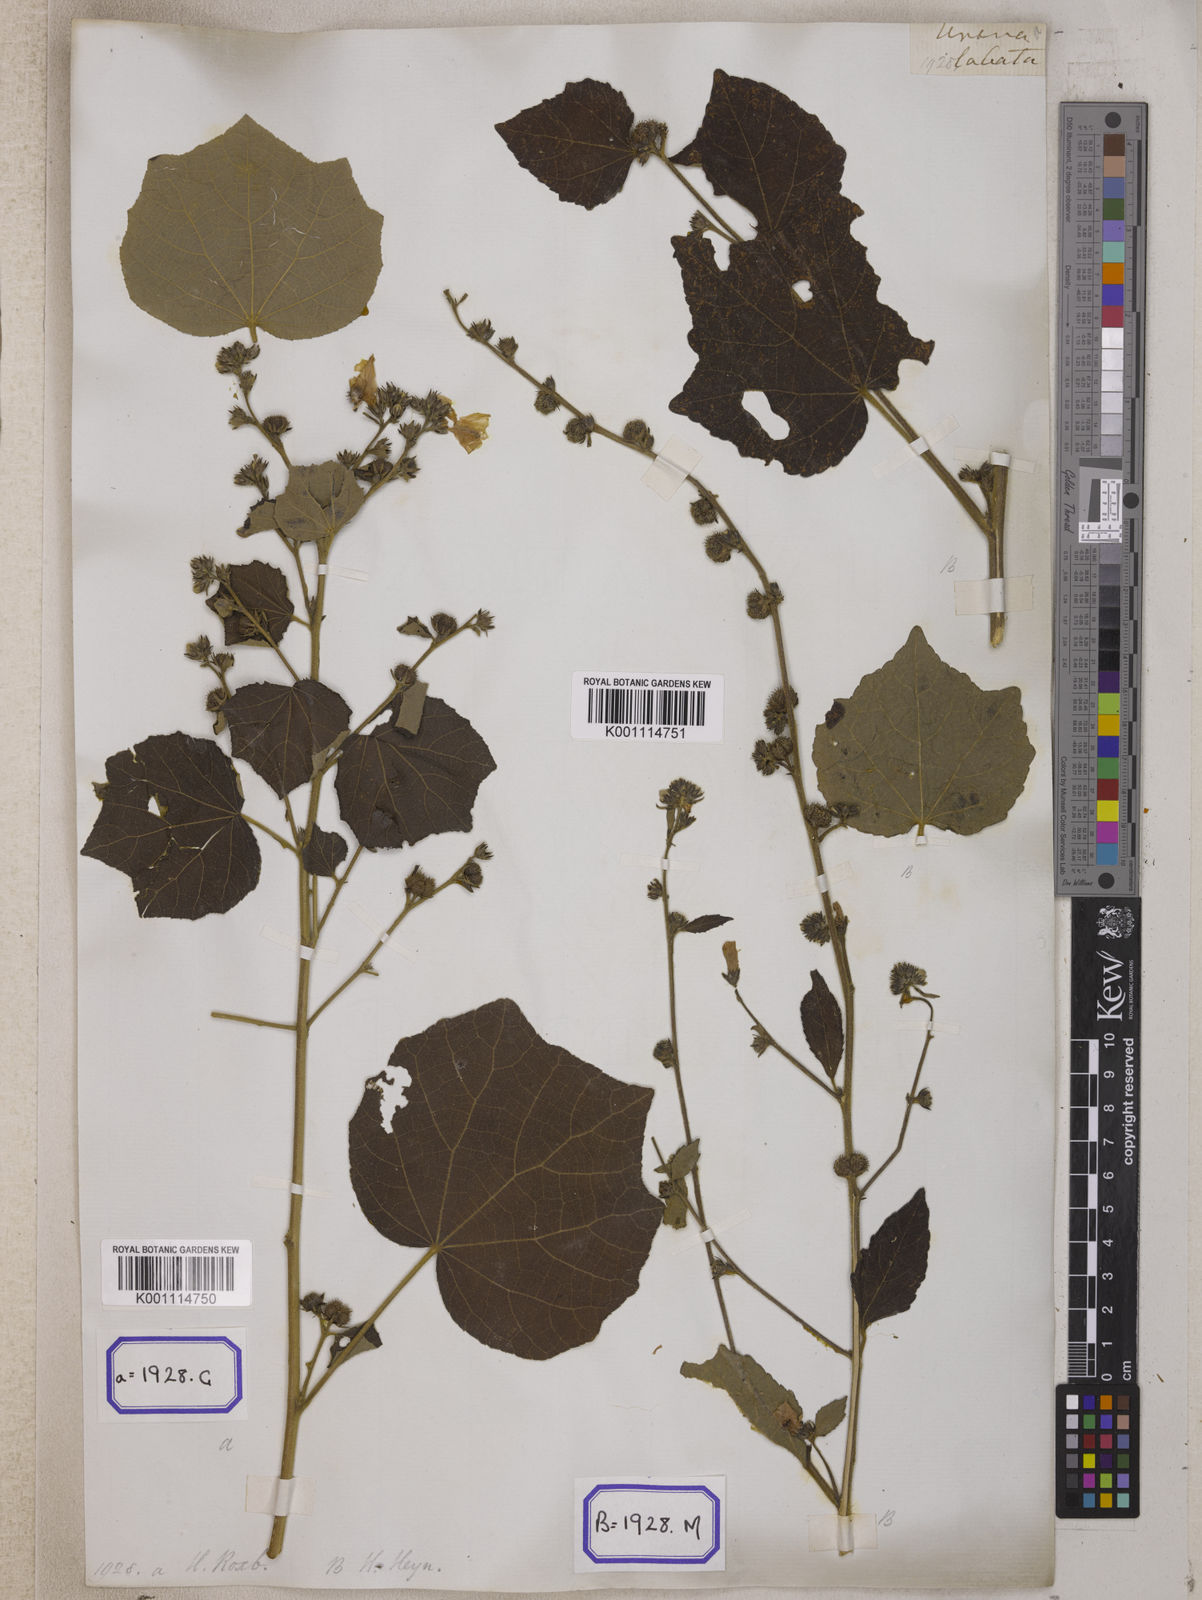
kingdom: Plantae
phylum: Tracheophyta
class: Magnoliopsida
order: Malvales
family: Malvaceae
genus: Urena
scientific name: Urena lobata
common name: Caesarweed
